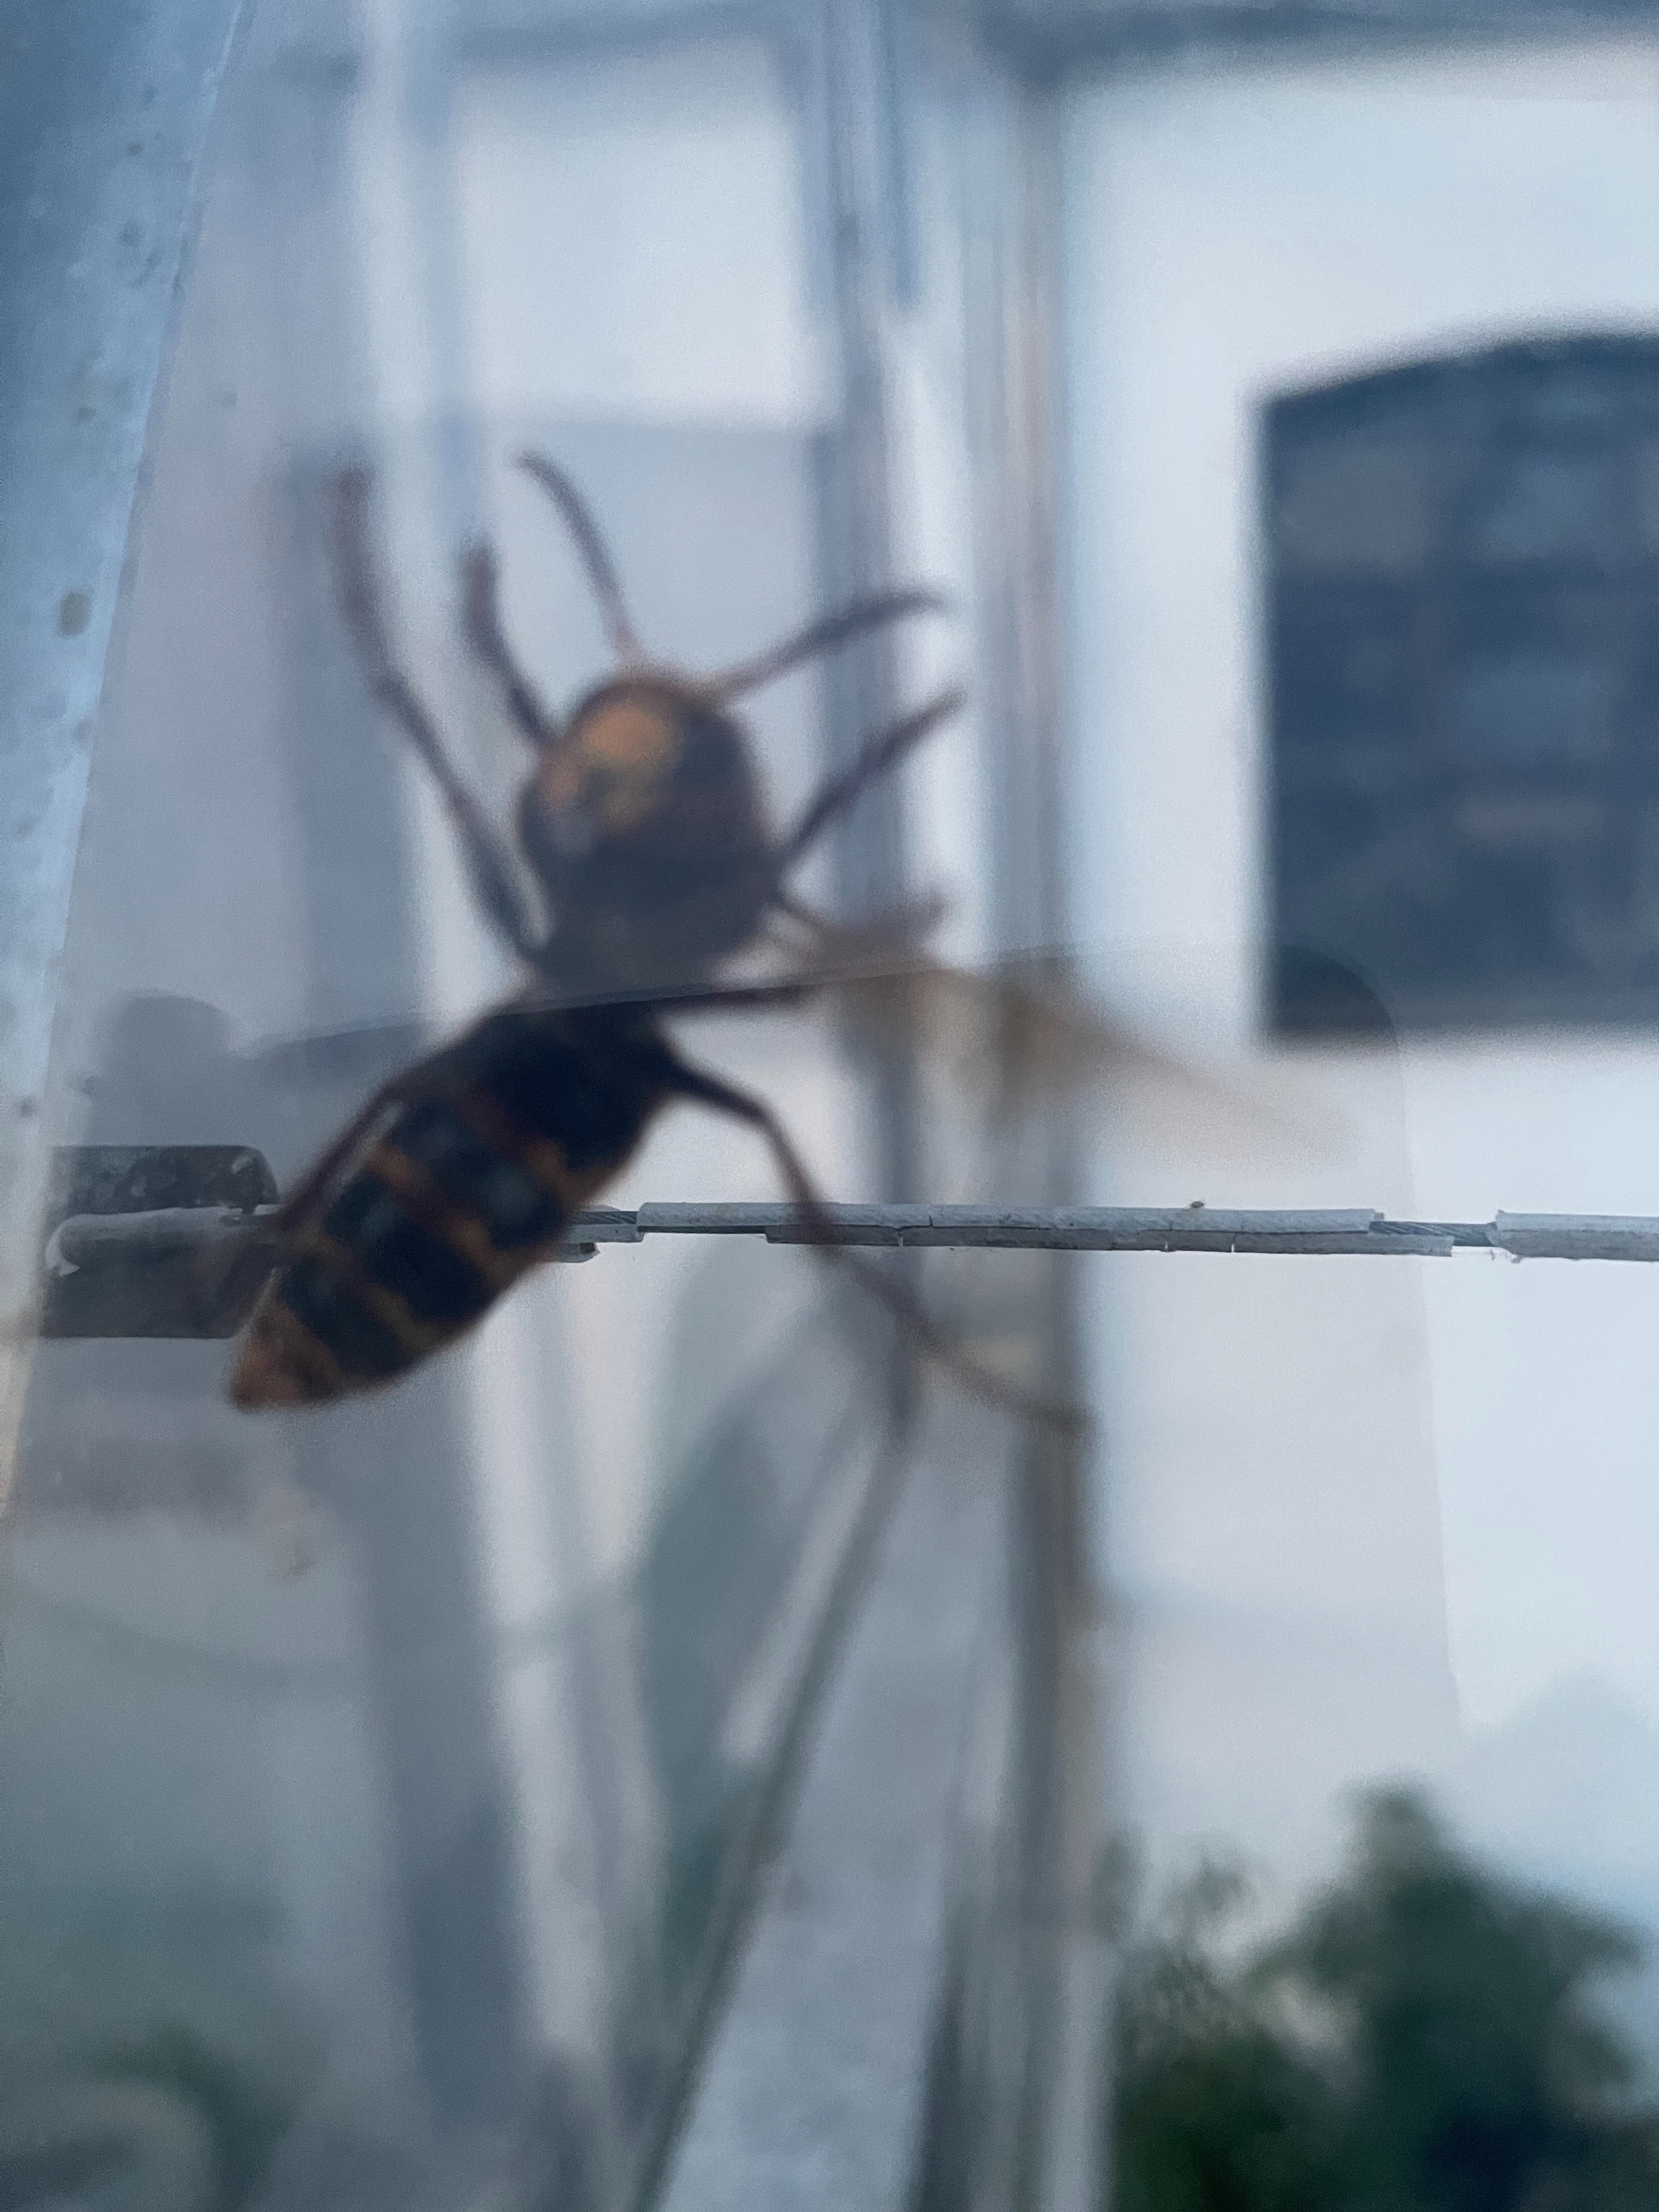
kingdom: Animalia
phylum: Arthropoda
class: Insecta
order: Hymenoptera
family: Vespidae
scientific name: Vespidae
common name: Gedehamse
